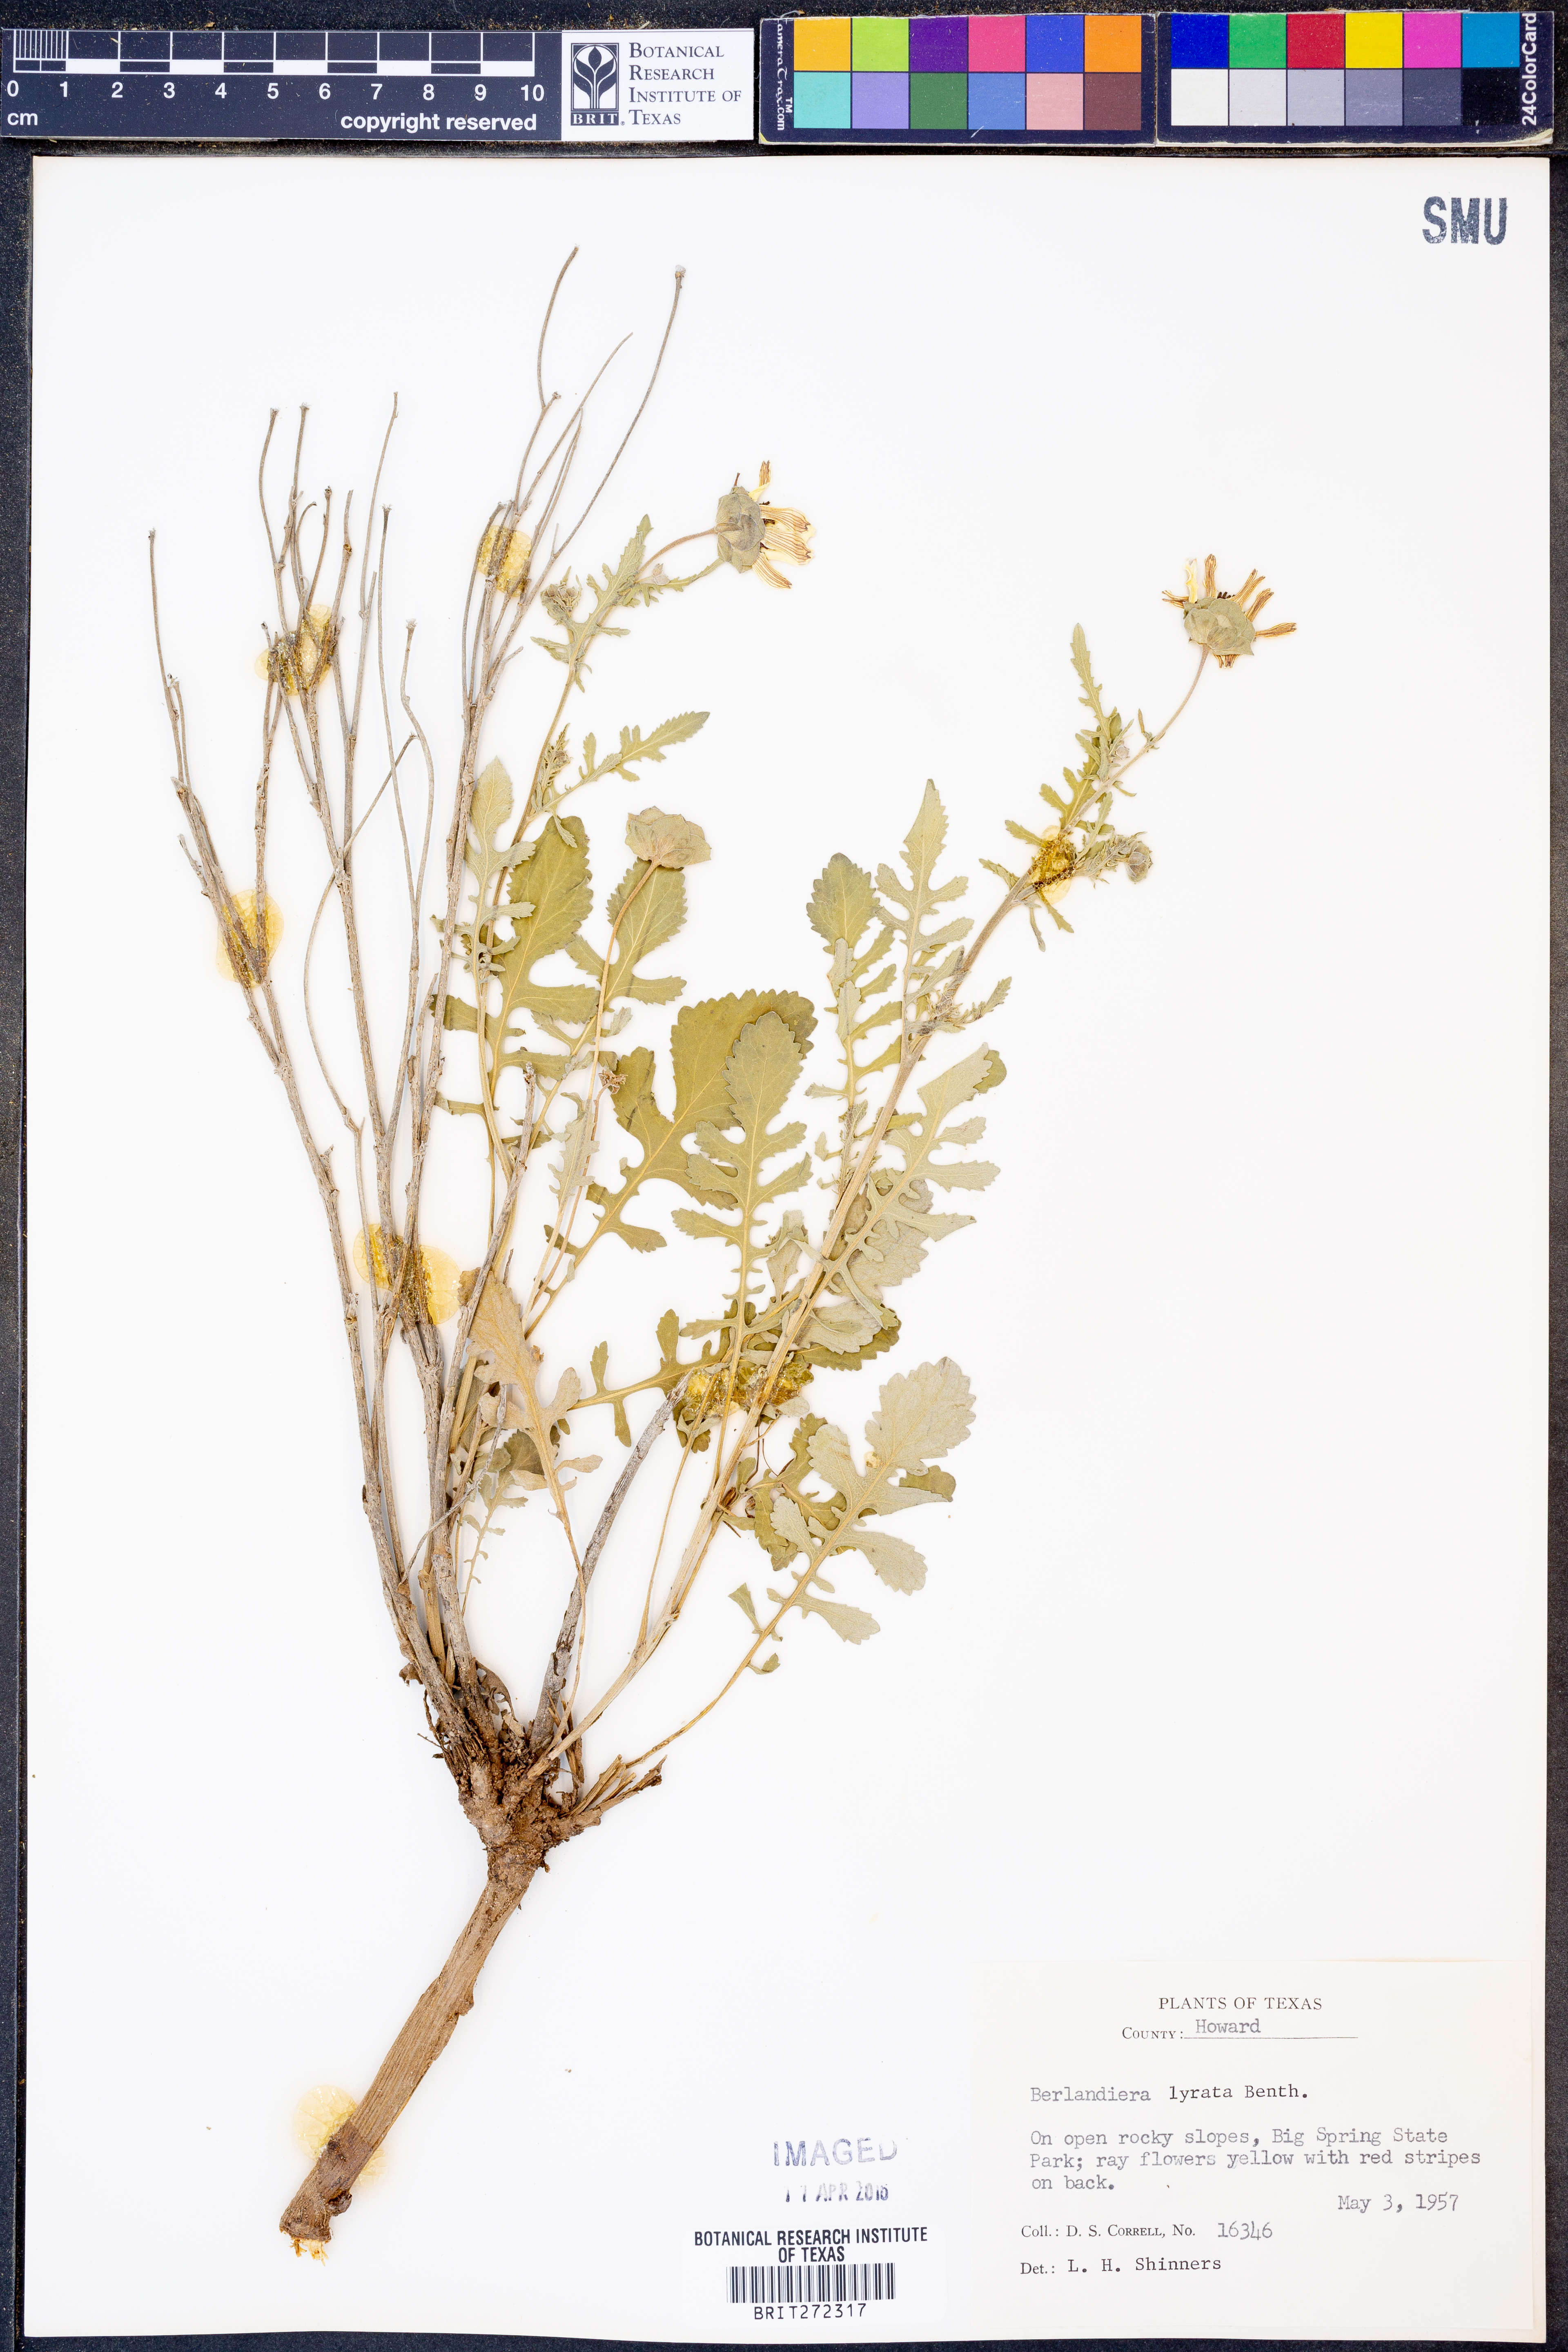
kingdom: Plantae
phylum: Tracheophyta
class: Magnoliopsida
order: Asterales
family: Asteraceae
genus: Berlandiera
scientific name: Berlandiera lyrata
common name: Chocolate-flower
